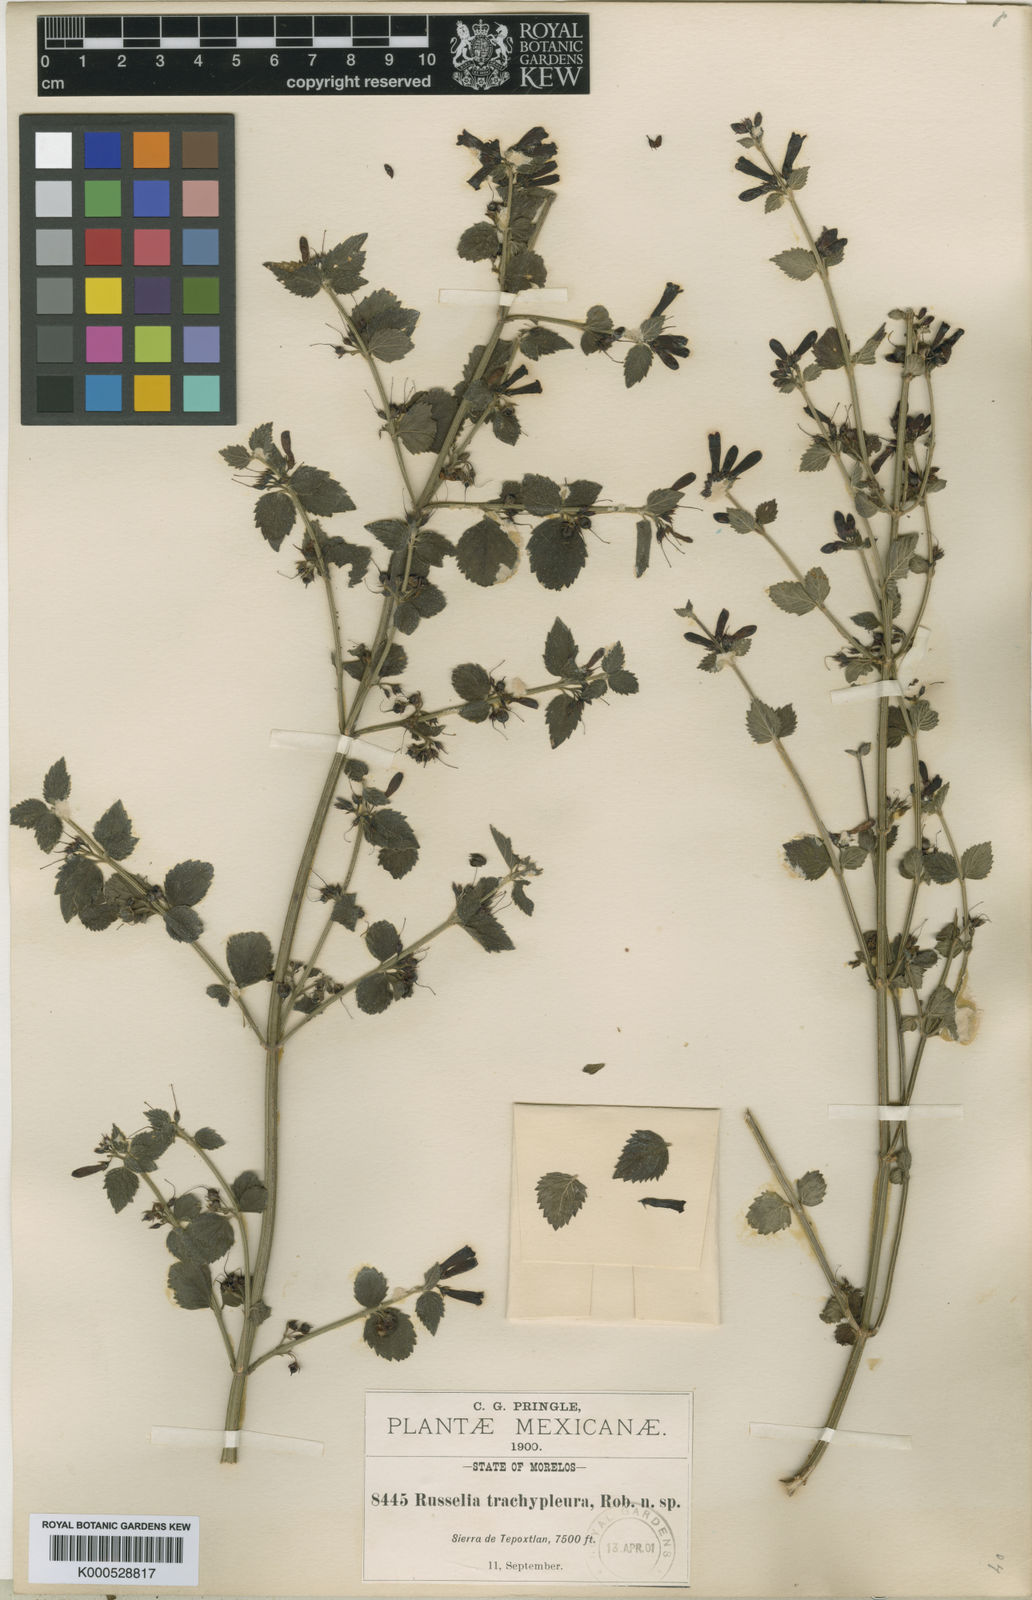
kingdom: Plantae
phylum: Tracheophyta
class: Magnoliopsida
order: Lamiales
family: Plantaginaceae
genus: Russelia
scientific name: Russelia retrorsa
